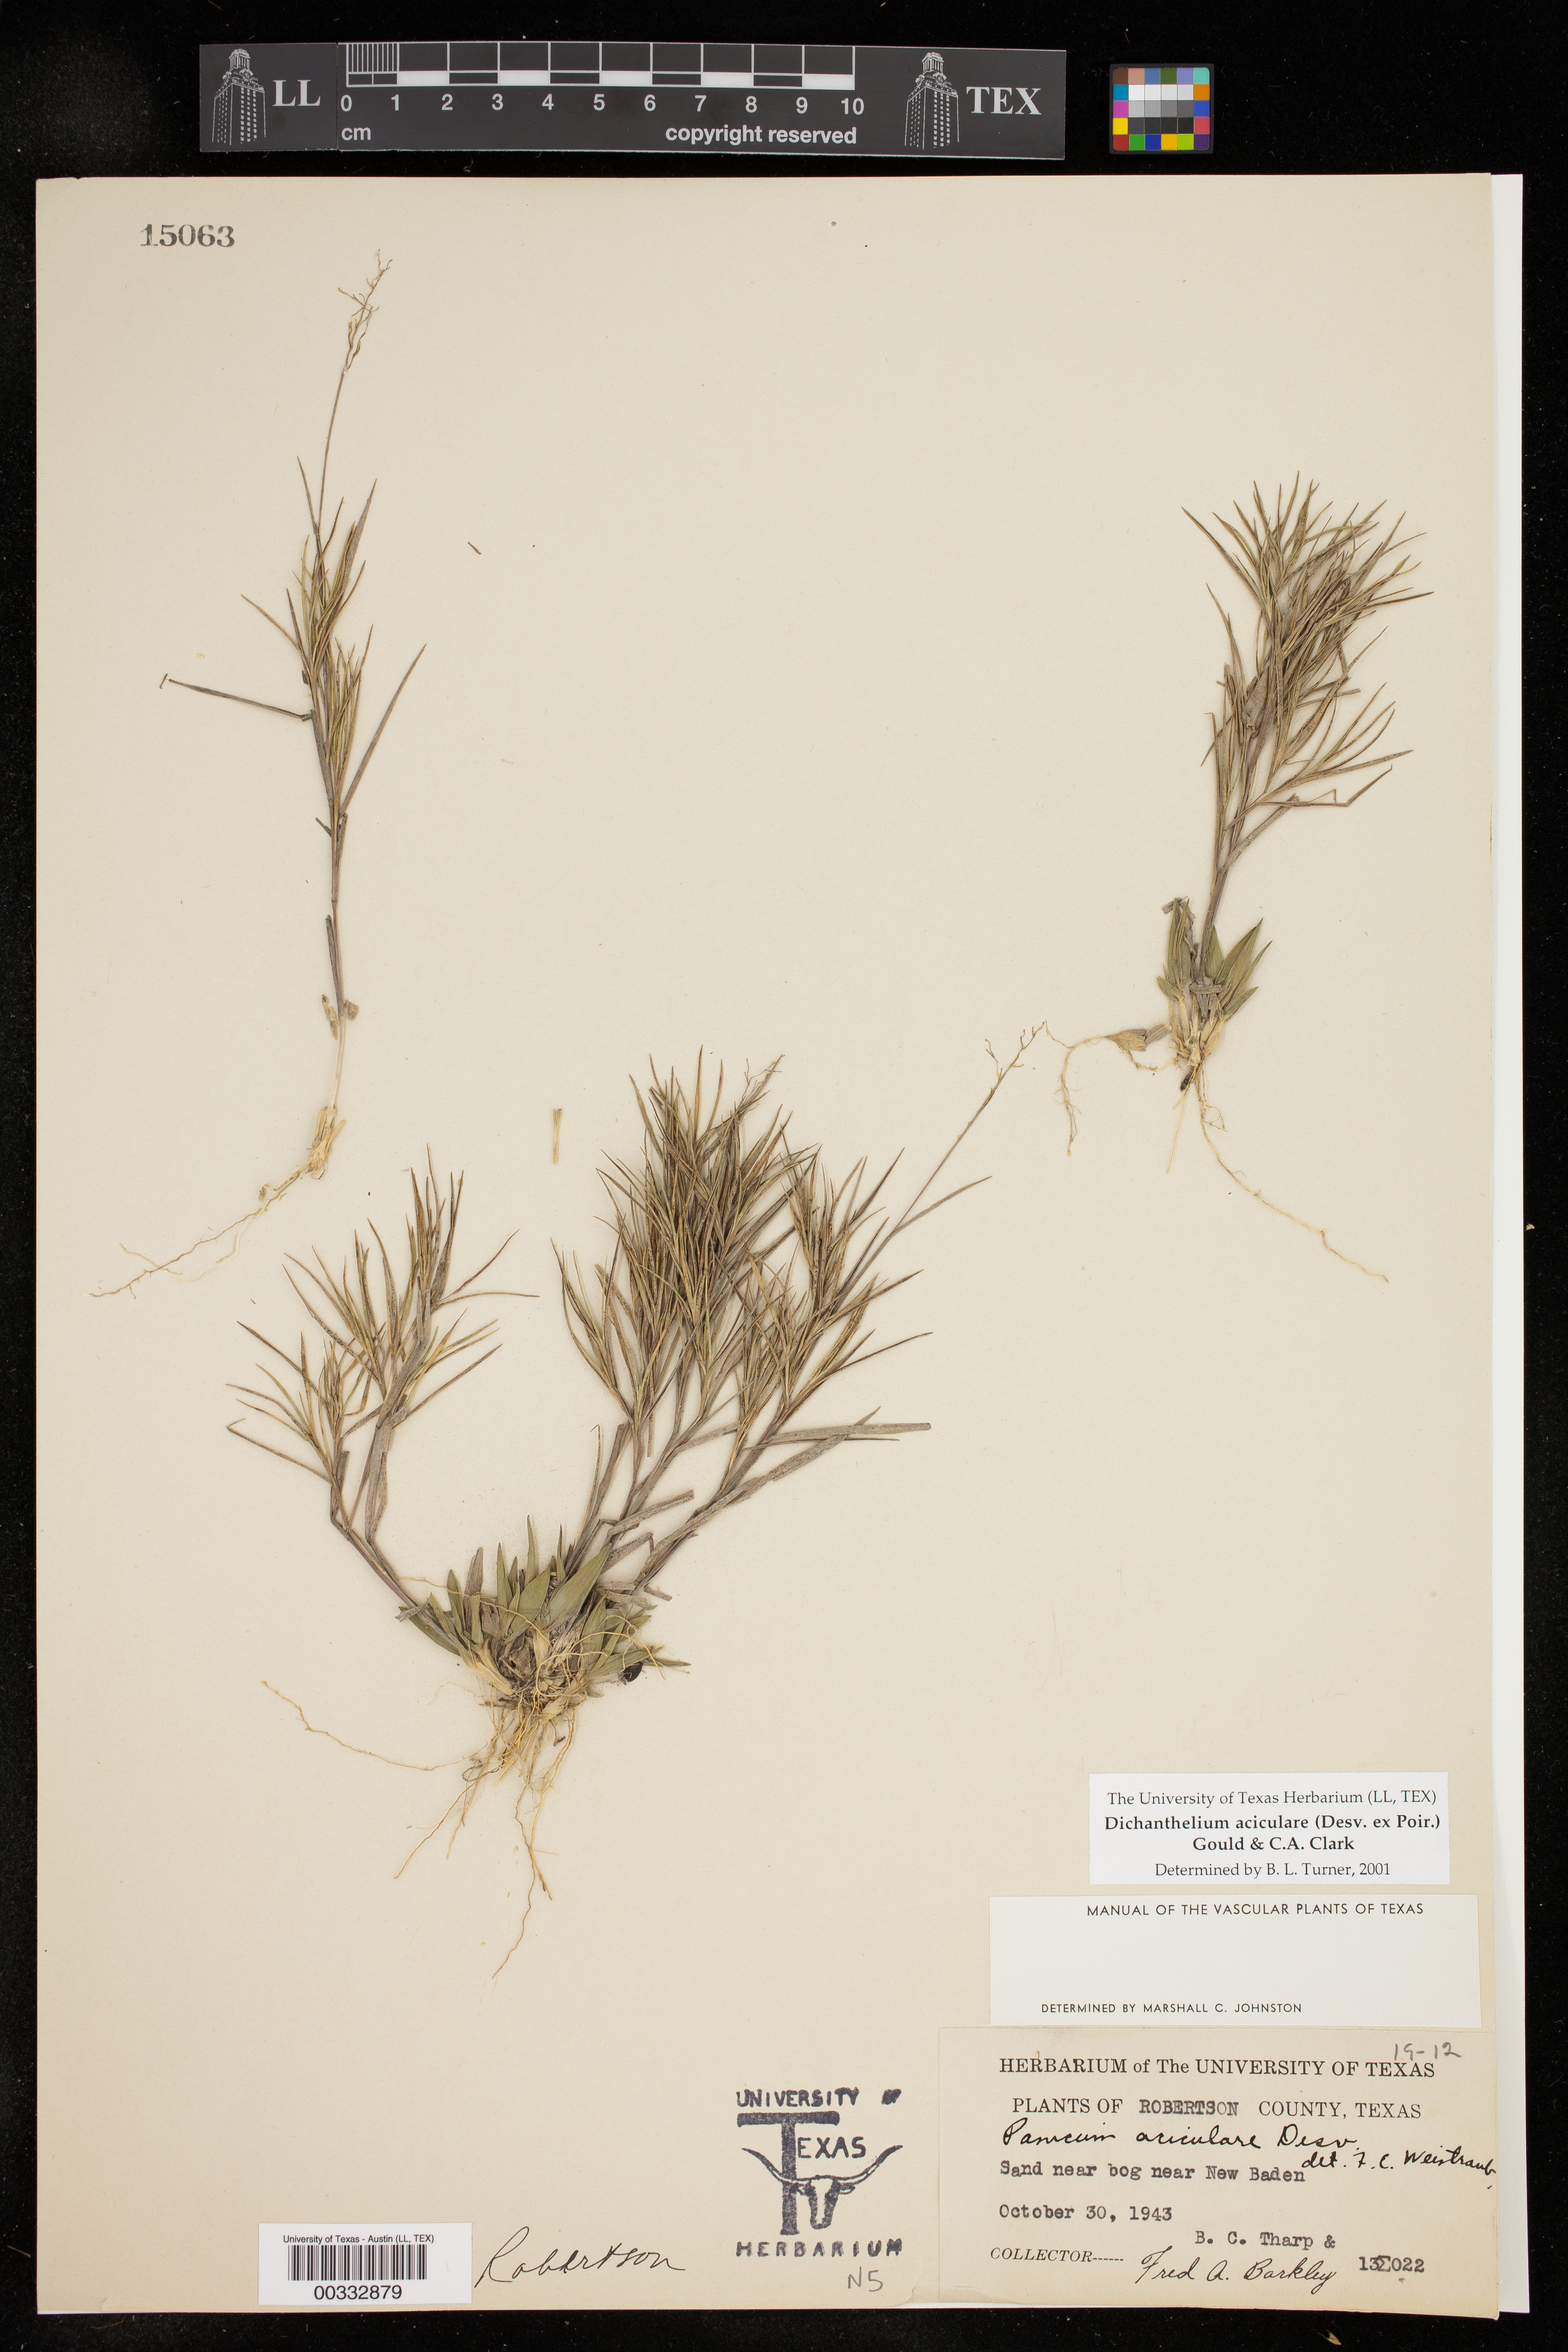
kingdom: Plantae
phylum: Tracheophyta
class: Liliopsida
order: Poales
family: Poaceae
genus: Dichanthelium
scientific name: Dichanthelium aciculare
